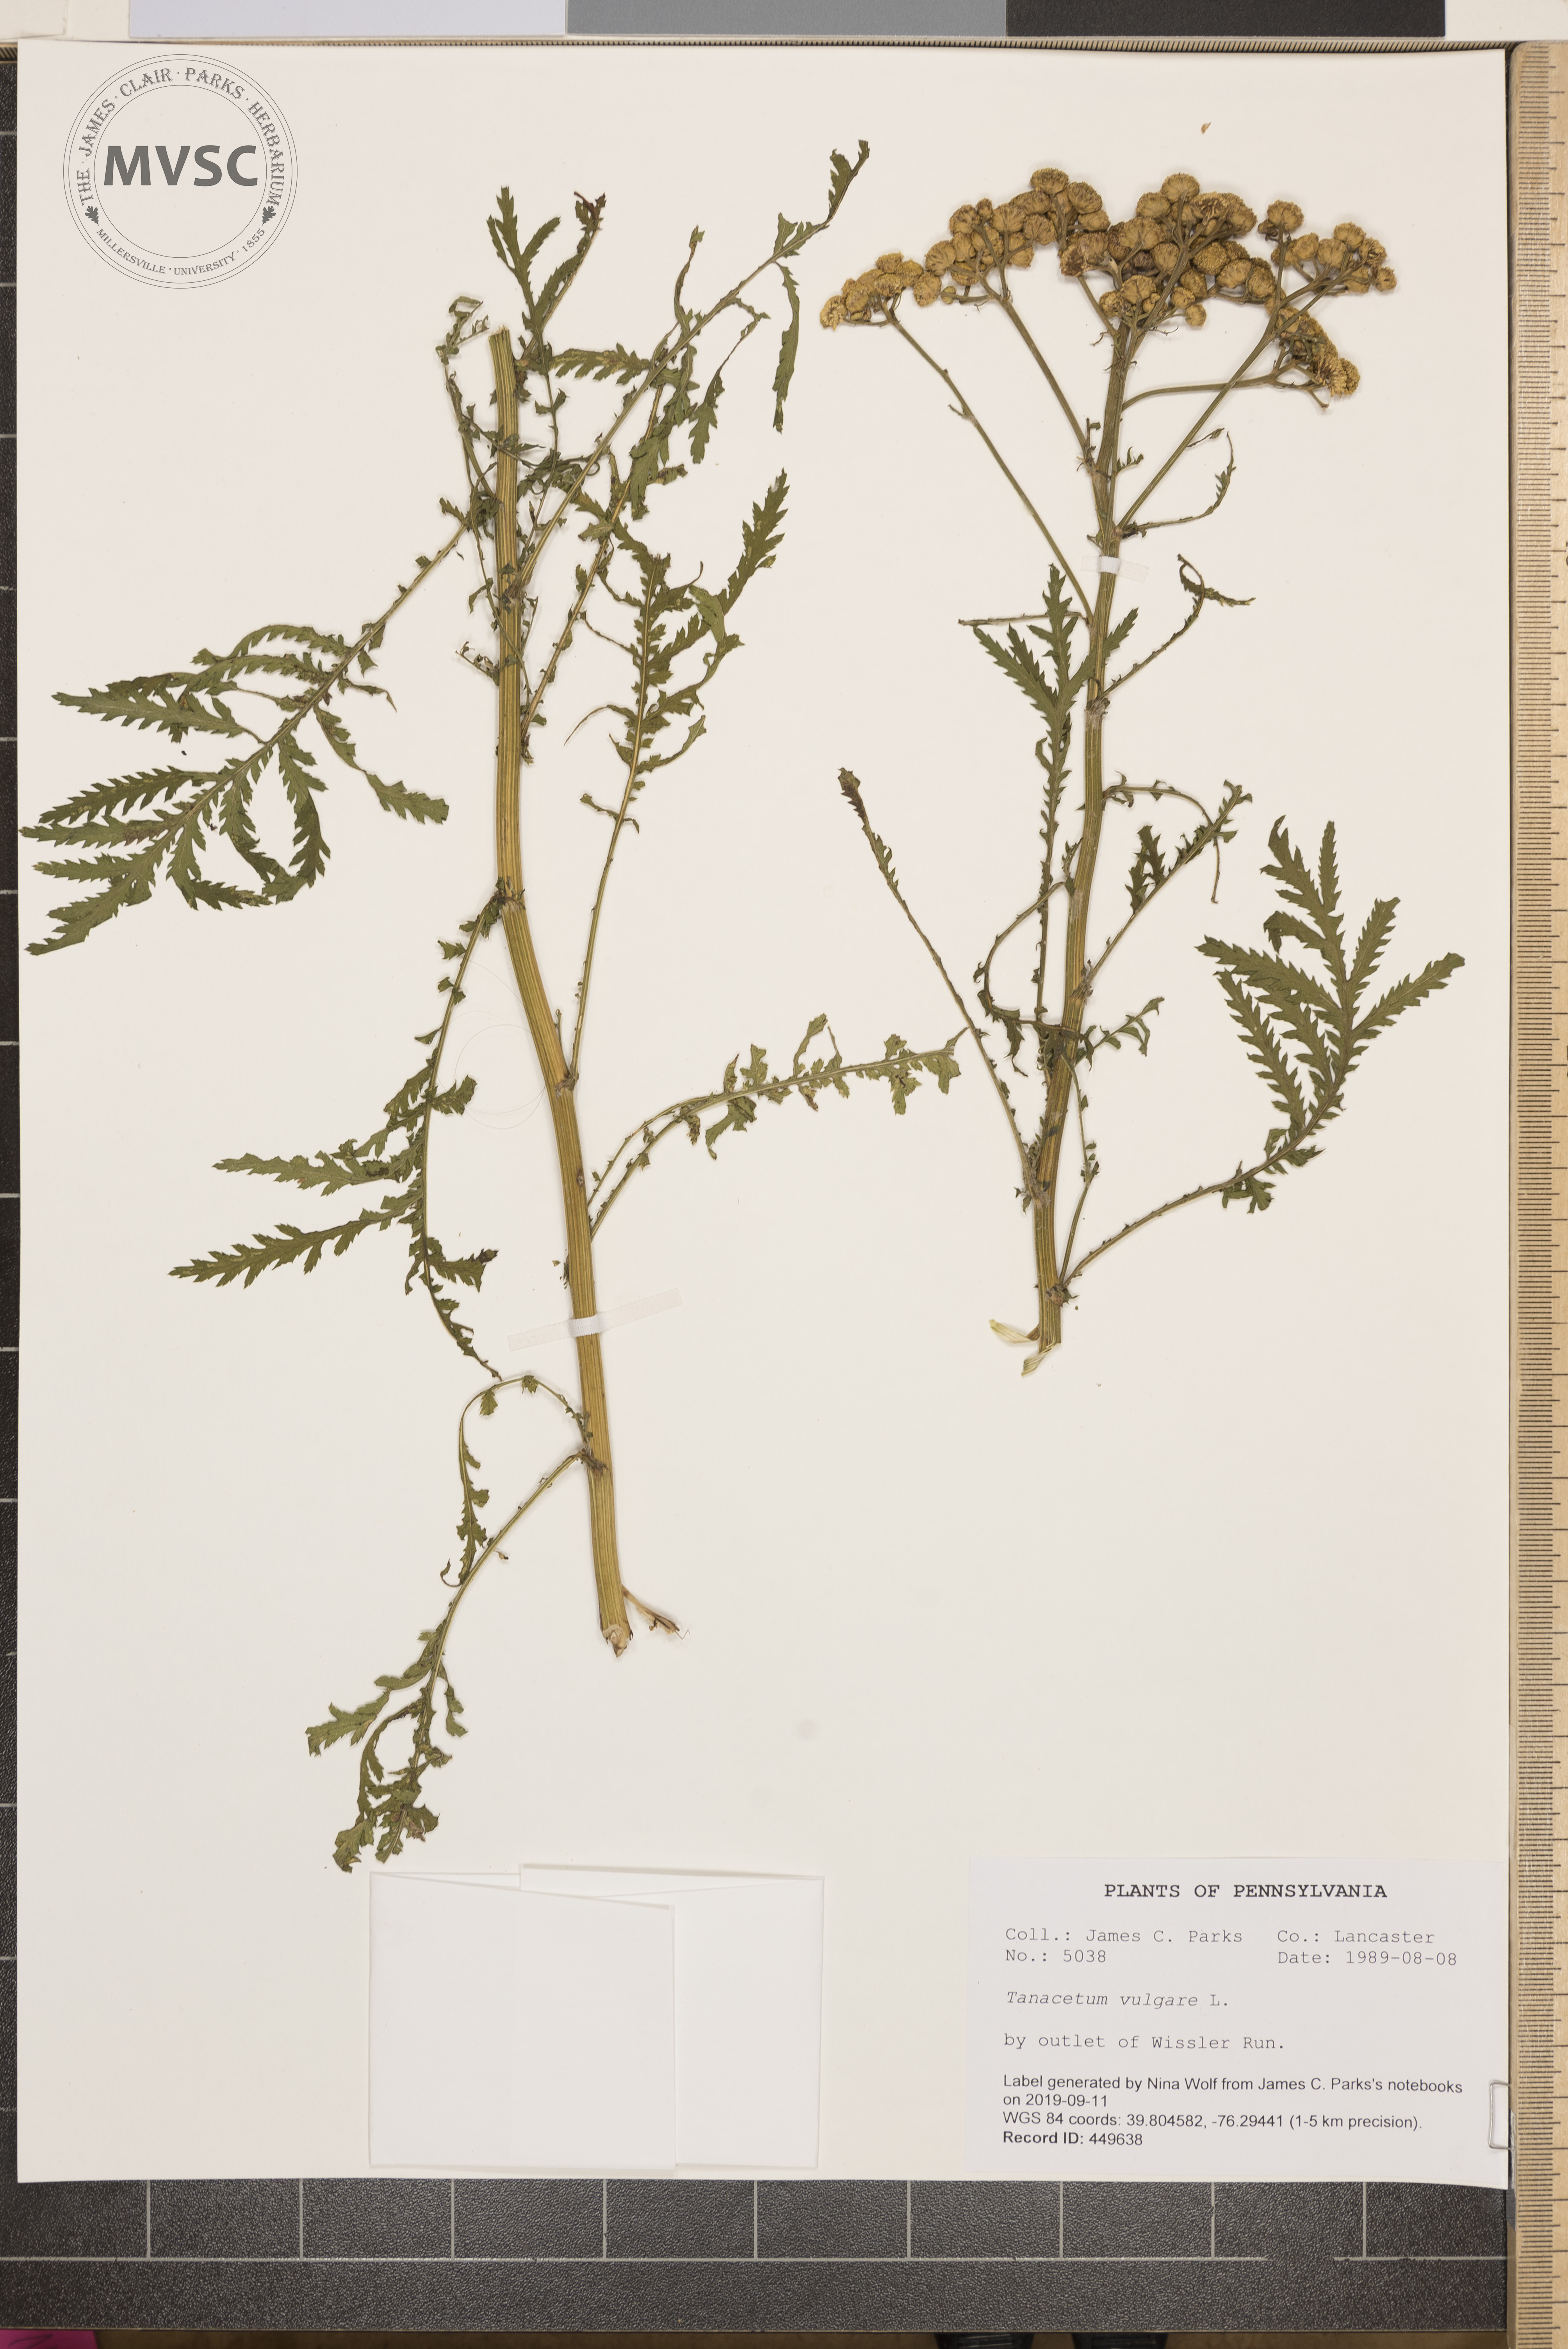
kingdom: Plantae
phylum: Tracheophyta
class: Magnoliopsida
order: Asterales
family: Asteraceae
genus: Tanacetum
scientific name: Tanacetum vulgare
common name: Common tansy
